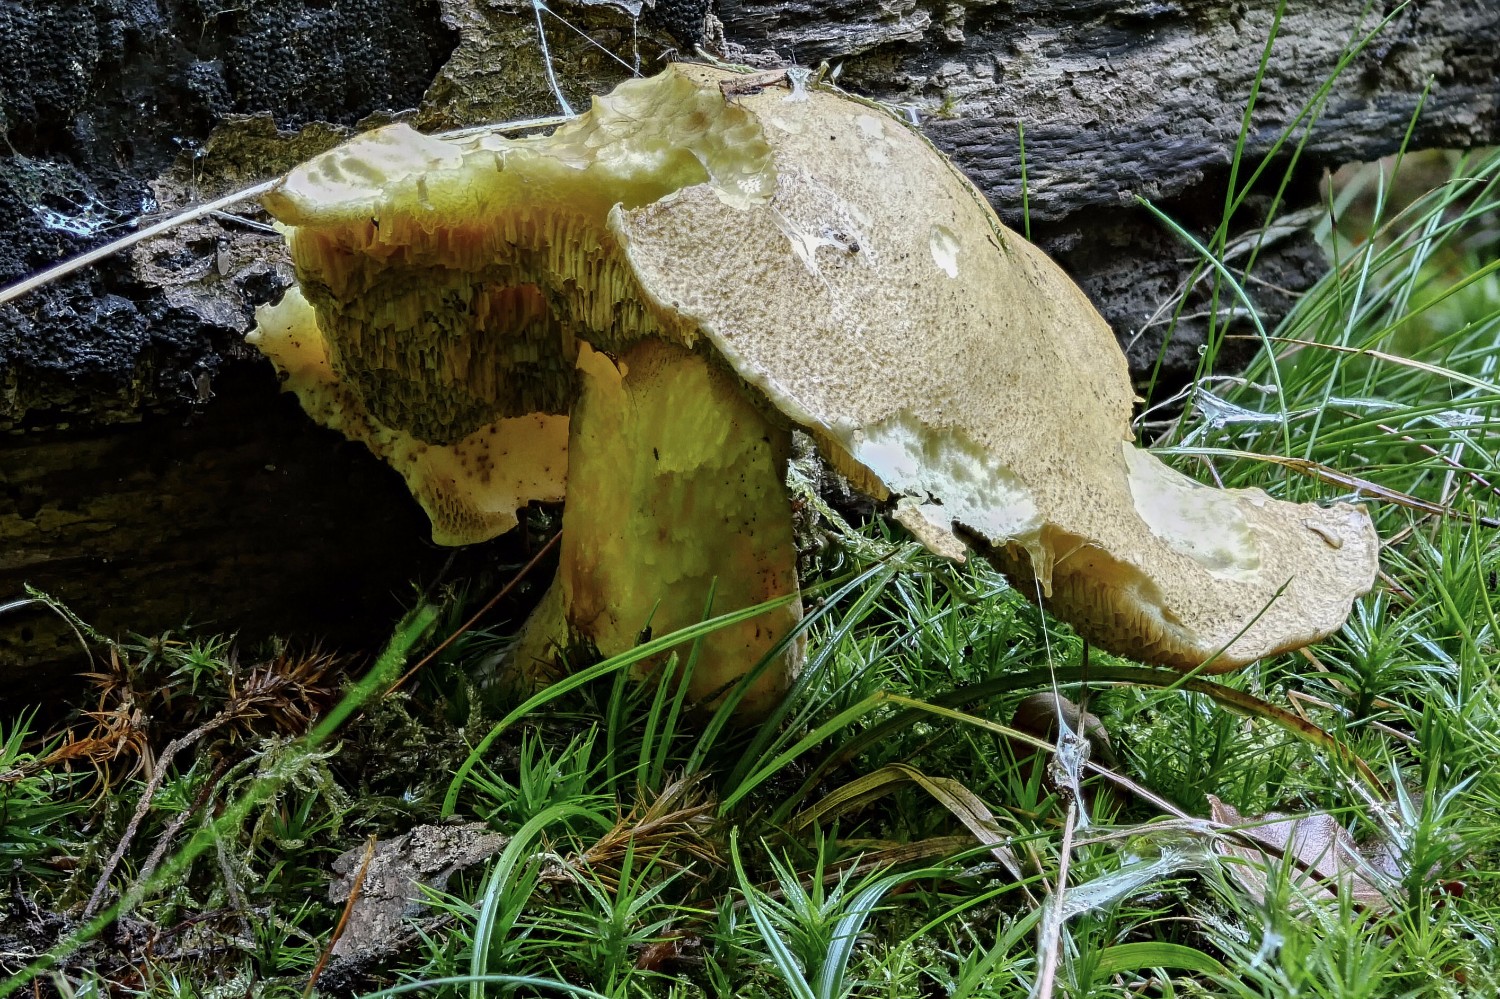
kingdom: Fungi
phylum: Basidiomycota
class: Agaricomycetes
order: Boletales
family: Suillaceae
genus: Suillus
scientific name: Suillus variegatus
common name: broget slimrørhat
